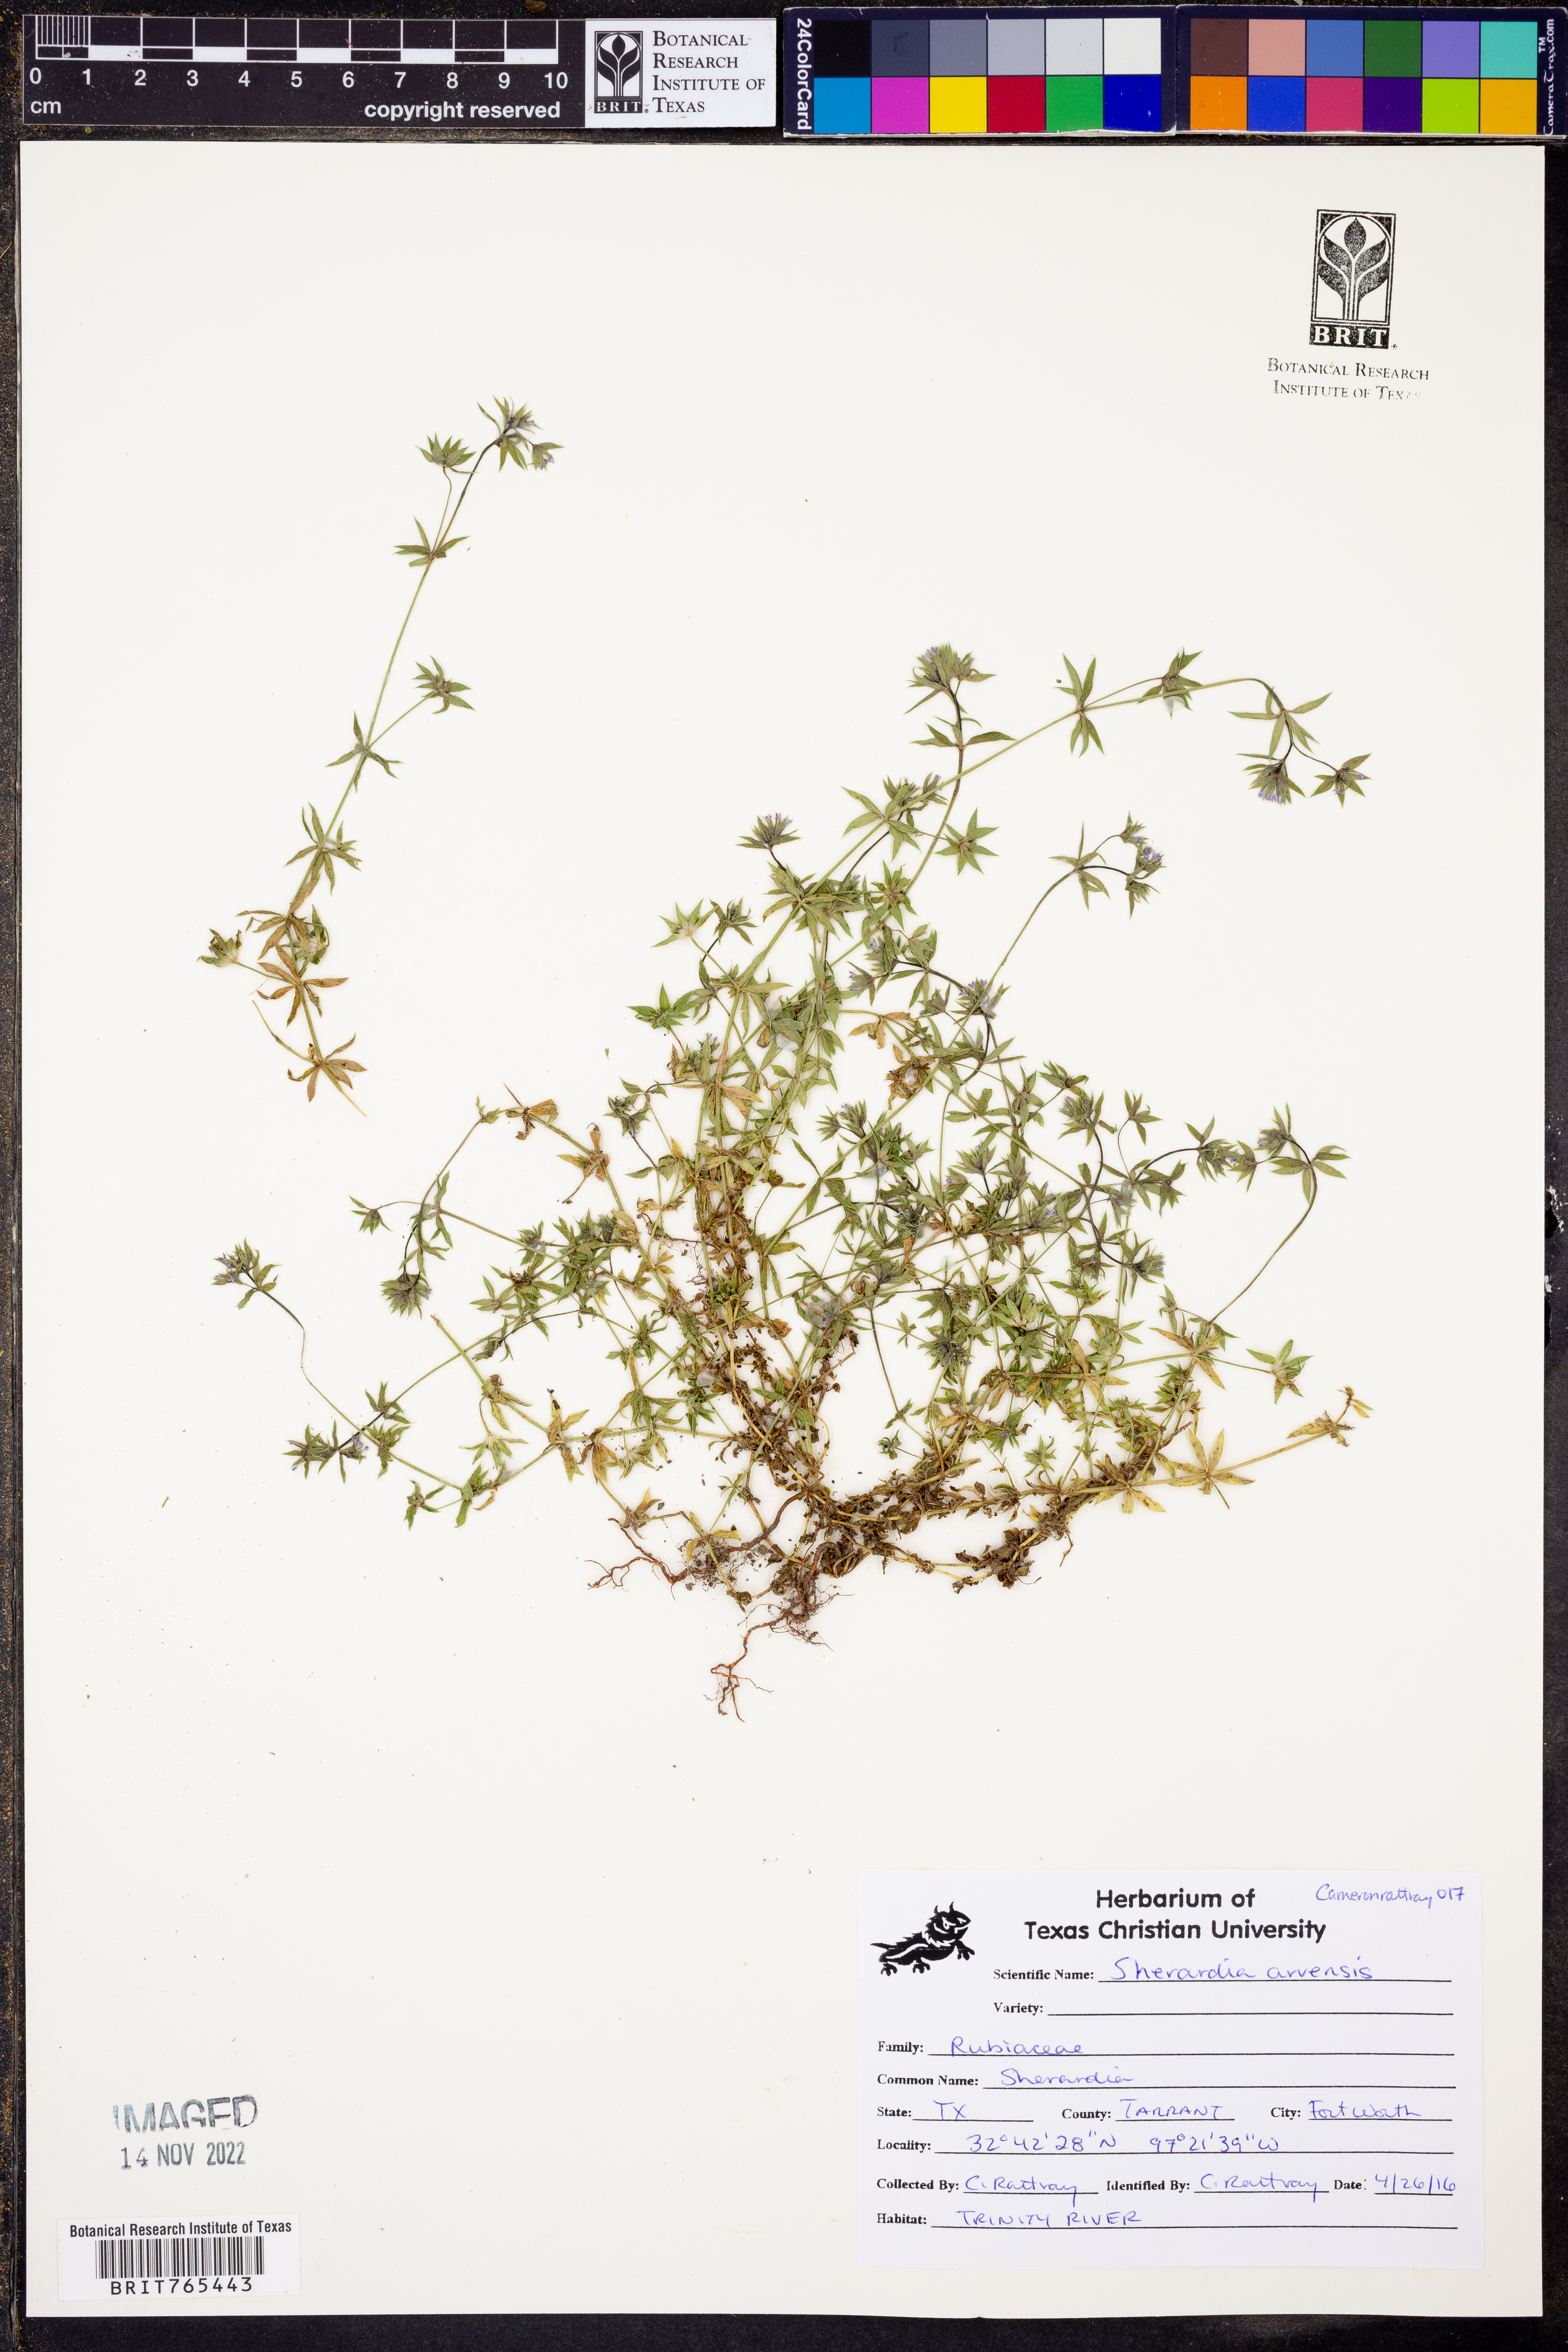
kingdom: Plantae
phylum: Tracheophyta
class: Magnoliopsida
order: Gentianales
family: Rubiaceae
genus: Sherardia
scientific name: Sherardia arvensis
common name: Field madder
